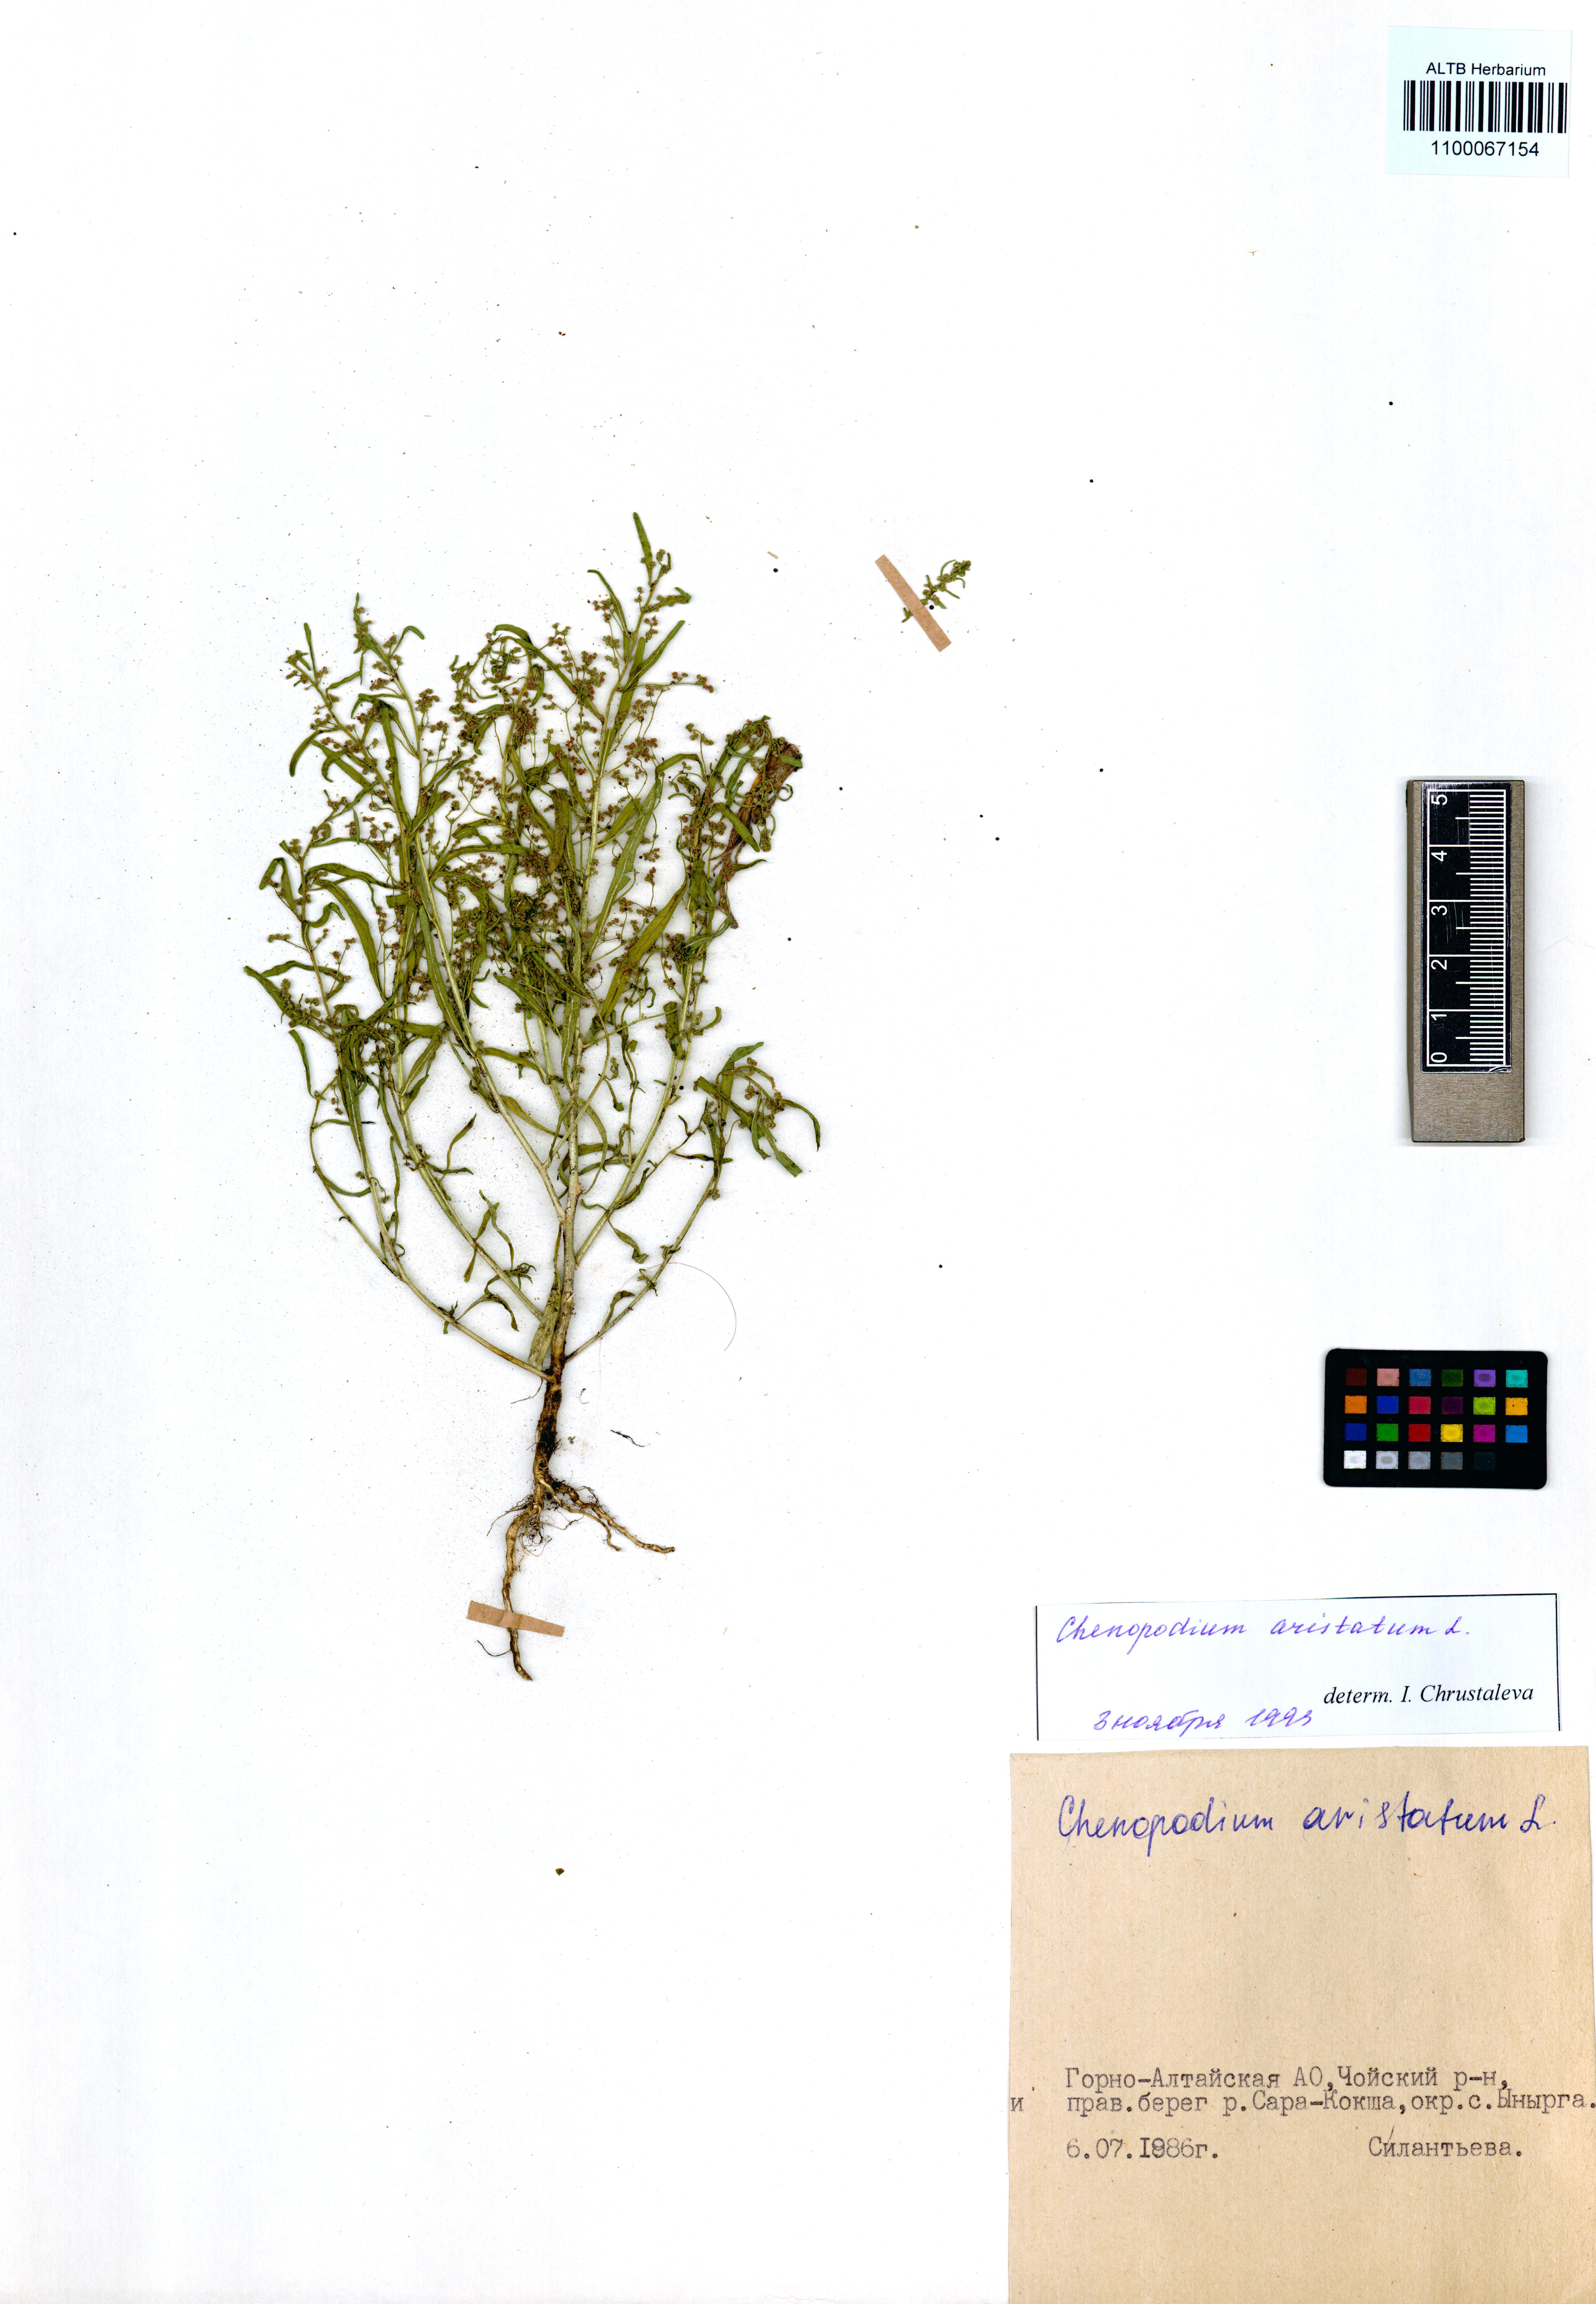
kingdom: Plantae
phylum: Tracheophyta
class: Magnoliopsida
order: Caryophyllales
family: Amaranthaceae
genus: Teloxys
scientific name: Teloxys aristata
